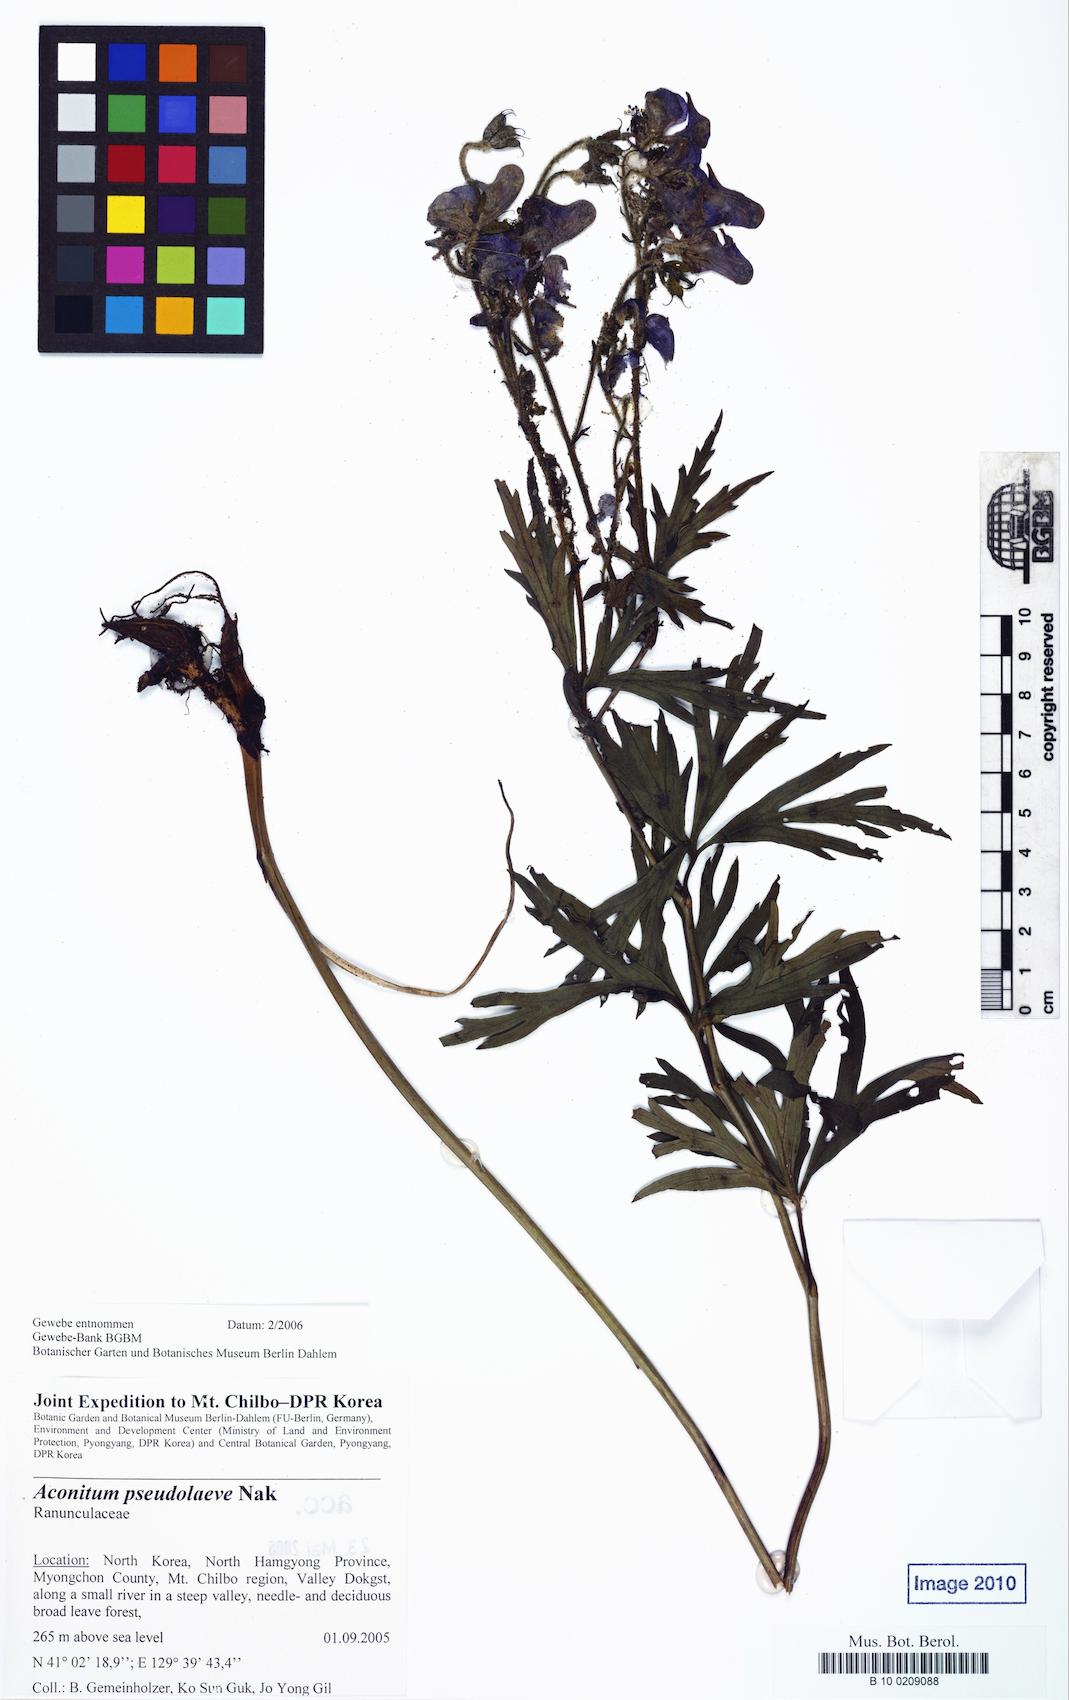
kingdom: Plantae
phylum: Tracheophyta
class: Magnoliopsida
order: Ranunculales
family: Ranunculaceae
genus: Aconitum
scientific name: Aconitum pseudolaeve
